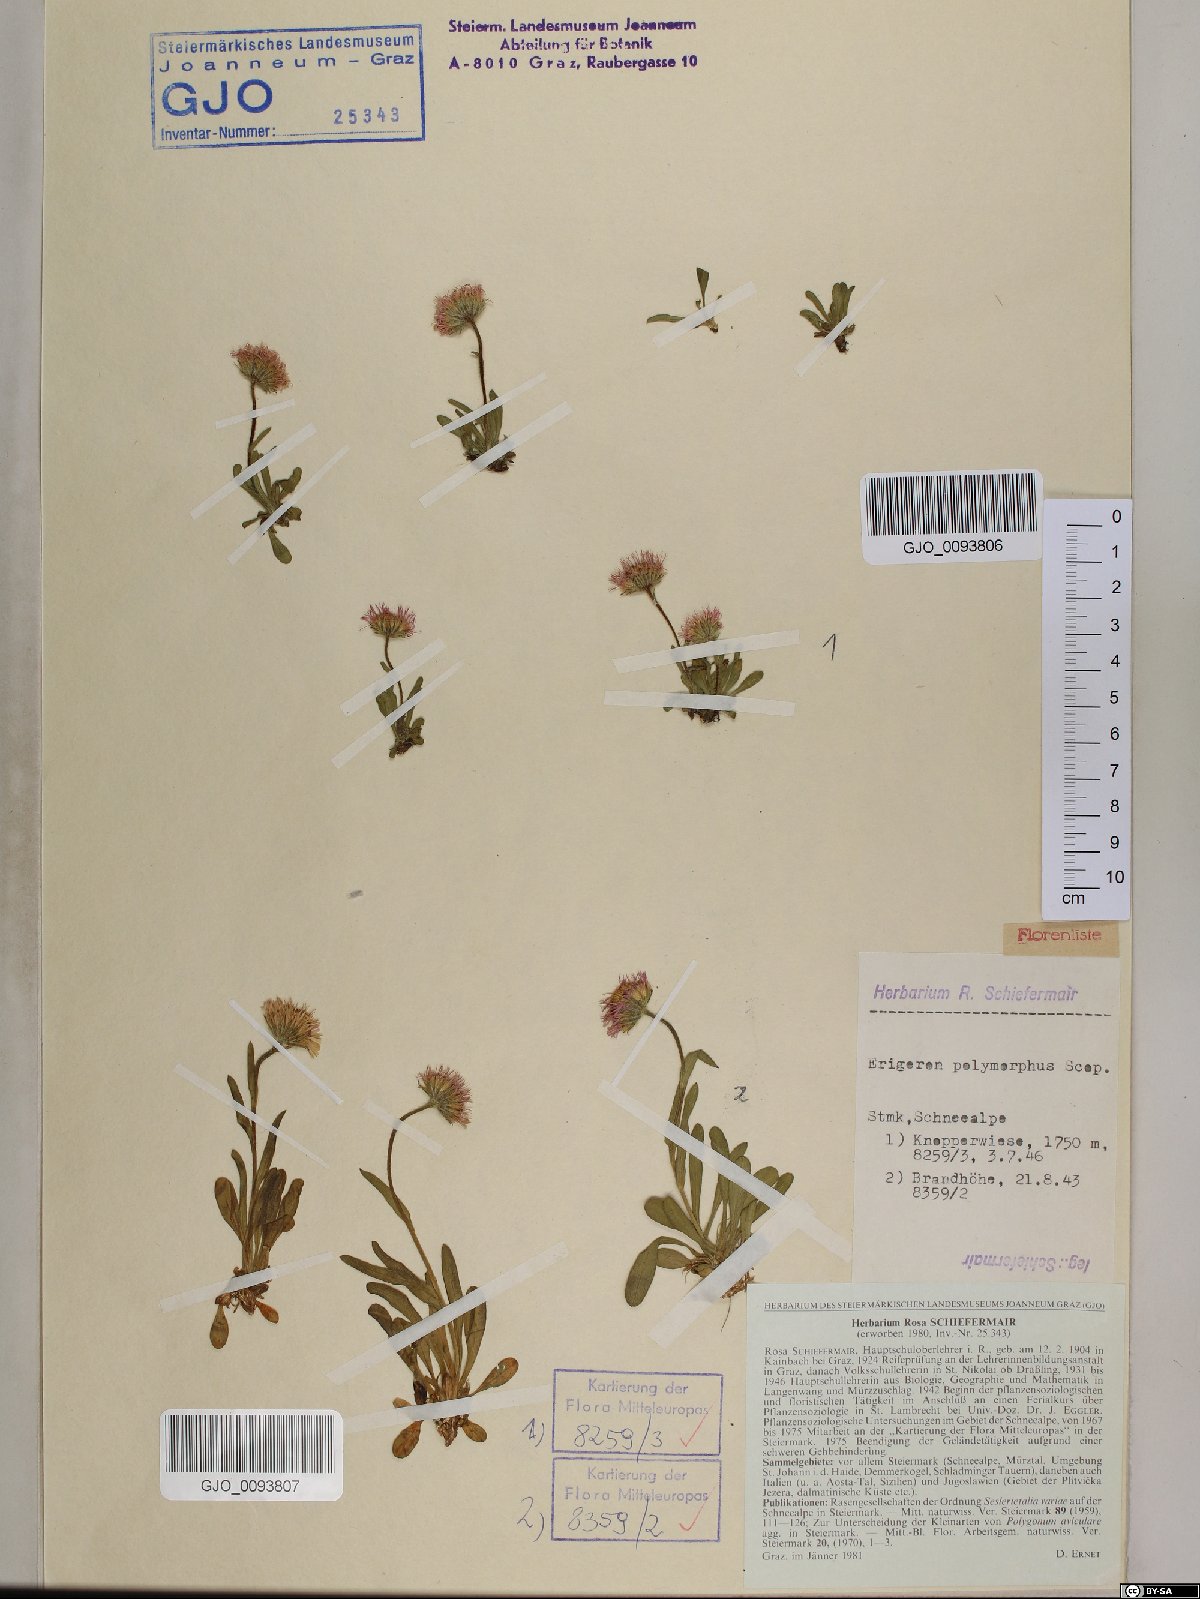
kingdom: Plantae
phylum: Tracheophyta
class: Magnoliopsida
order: Asterales
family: Asteraceae
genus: Erigeron
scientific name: Erigeron alpinus
